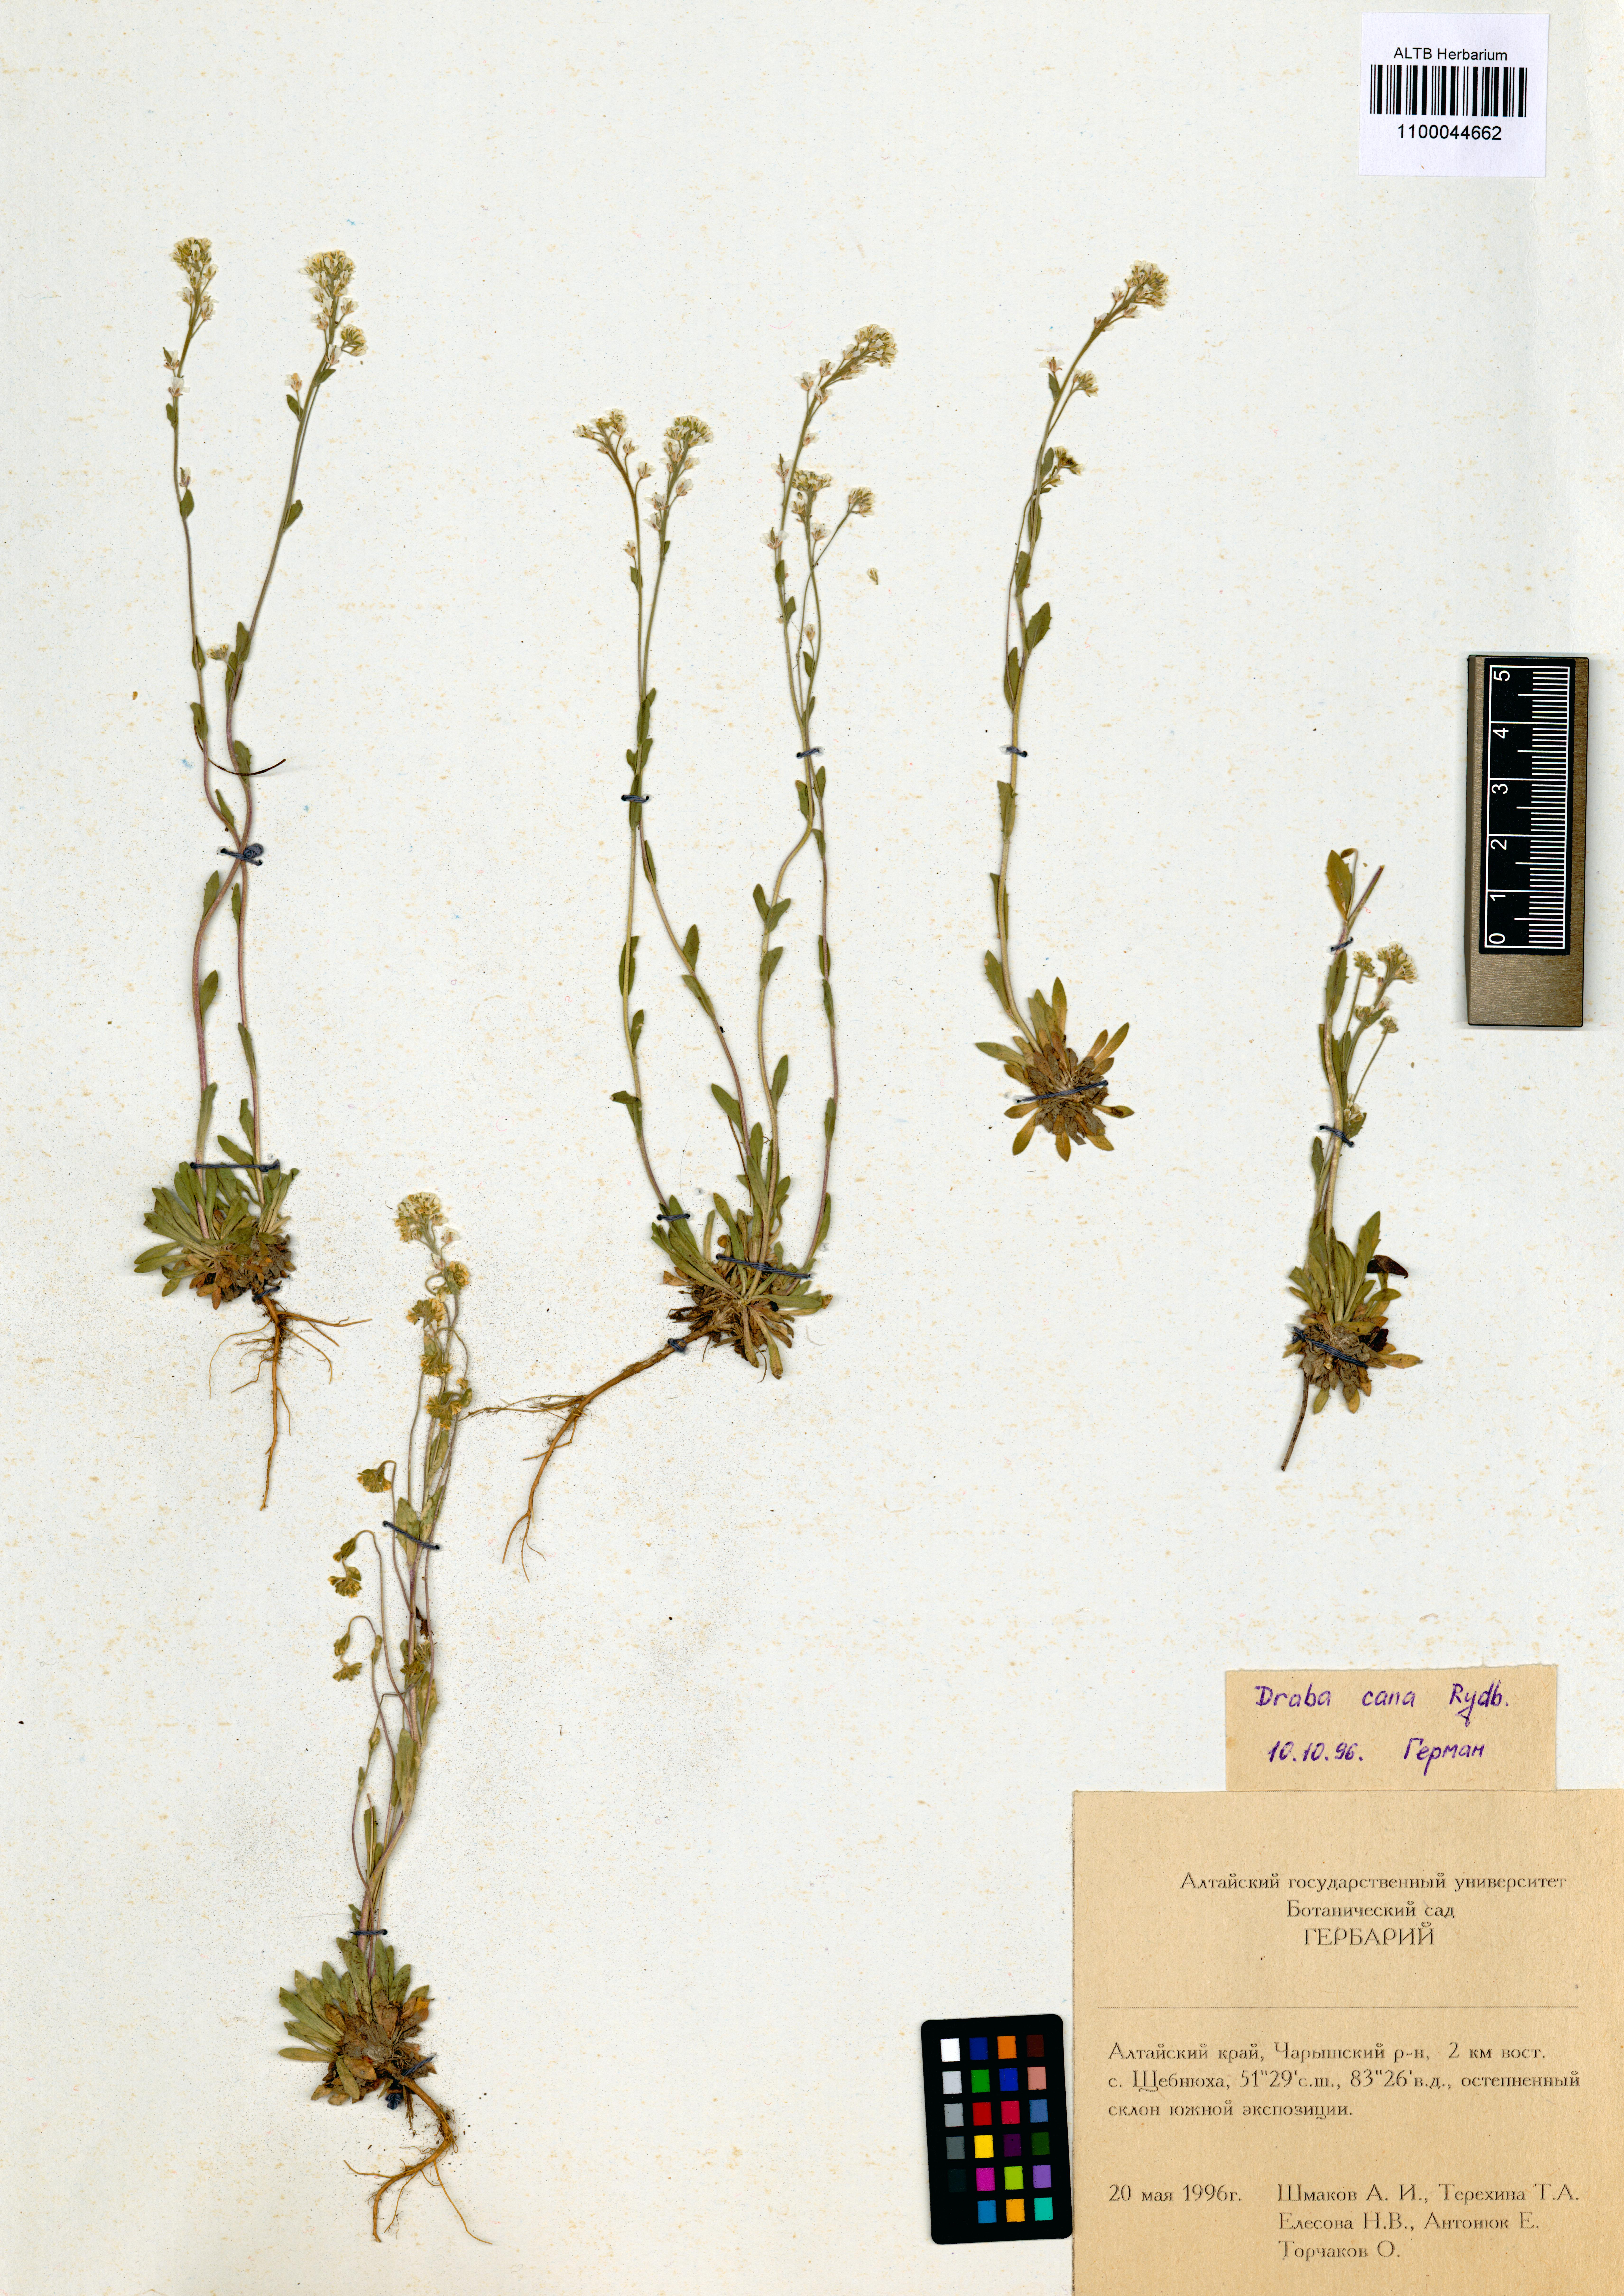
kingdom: Plantae
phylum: Tracheophyta
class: Magnoliopsida
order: Brassicales
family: Brassicaceae
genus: Draba
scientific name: Draba cana
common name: Hoary draba
